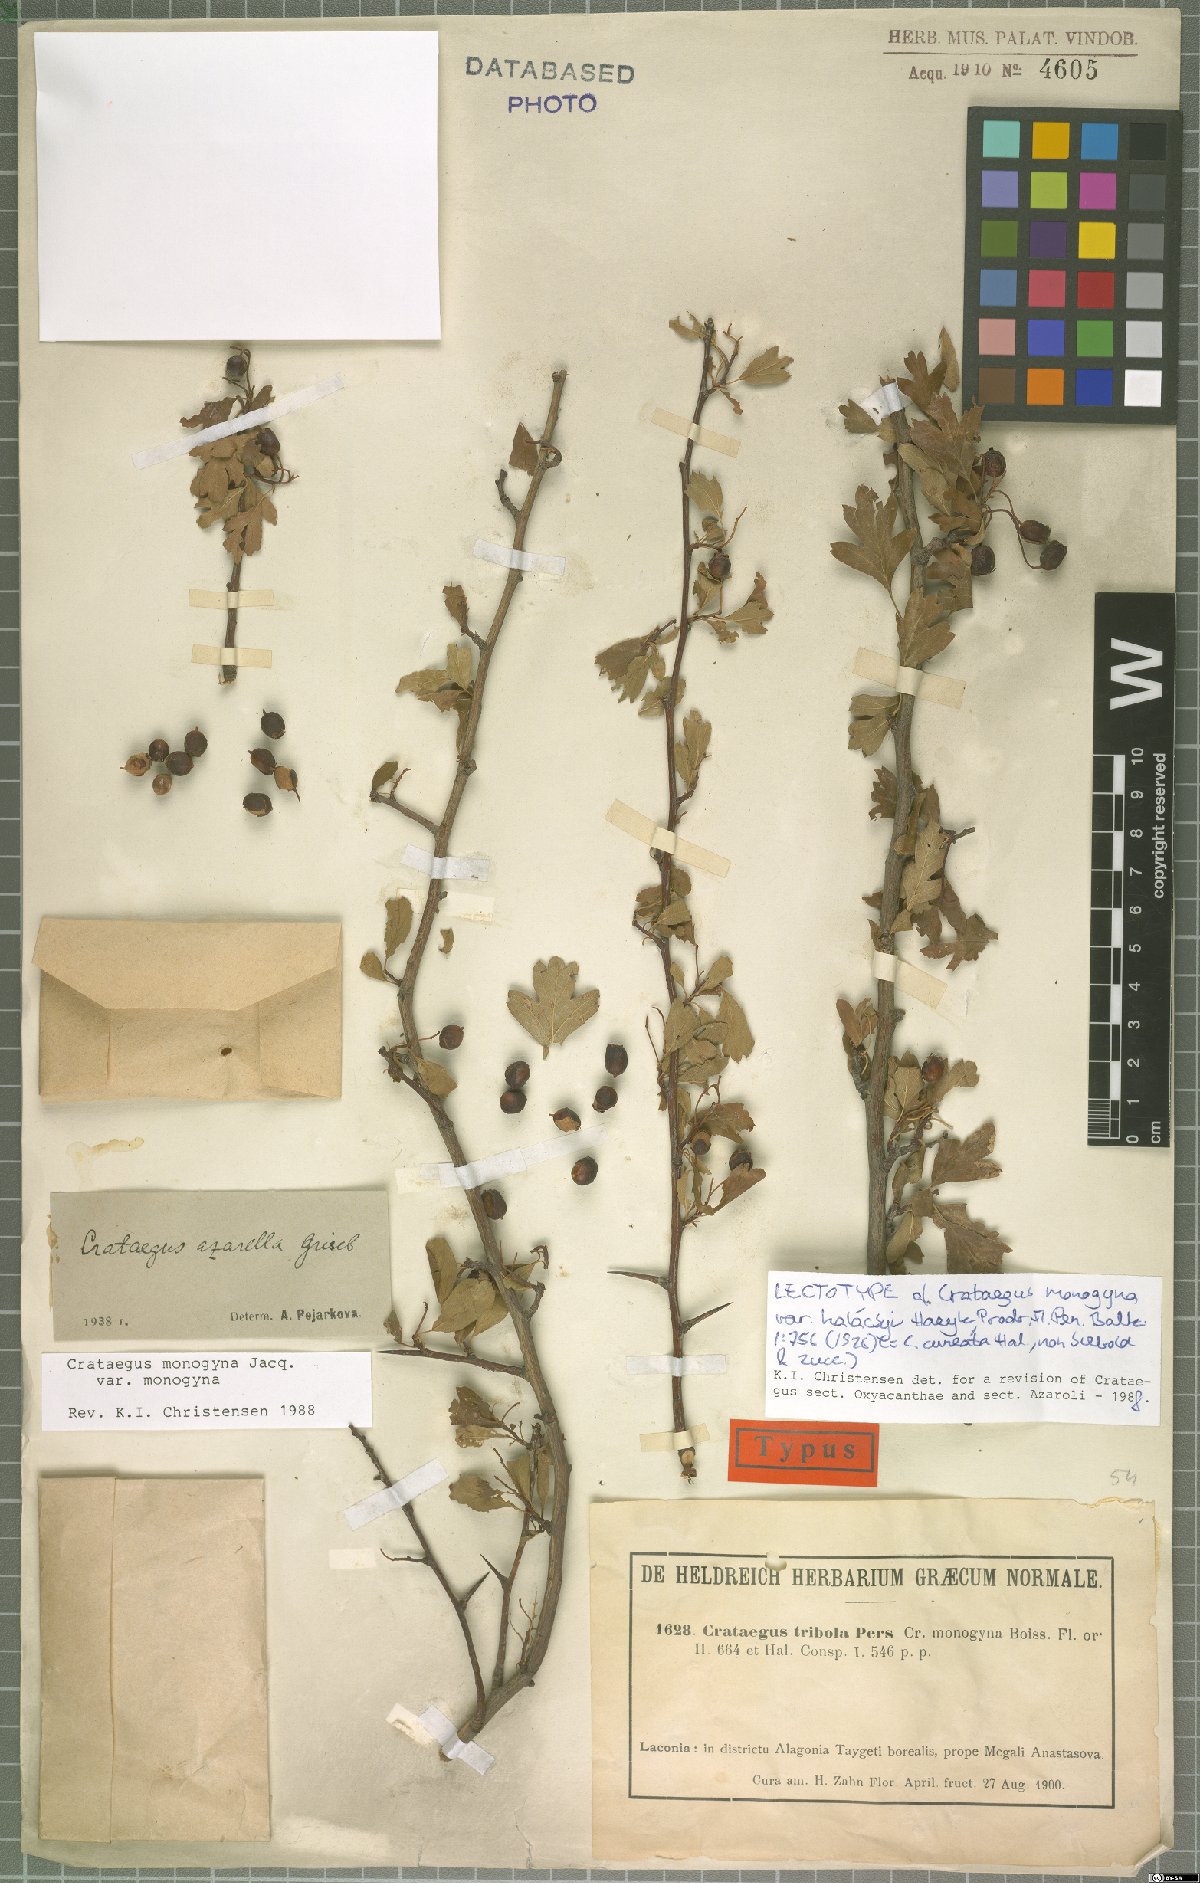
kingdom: Plantae
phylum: Tracheophyta
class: Magnoliopsida
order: Rosales
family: Rosaceae
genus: Crataegus
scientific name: Crataegus monogyna
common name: Hawthorn
